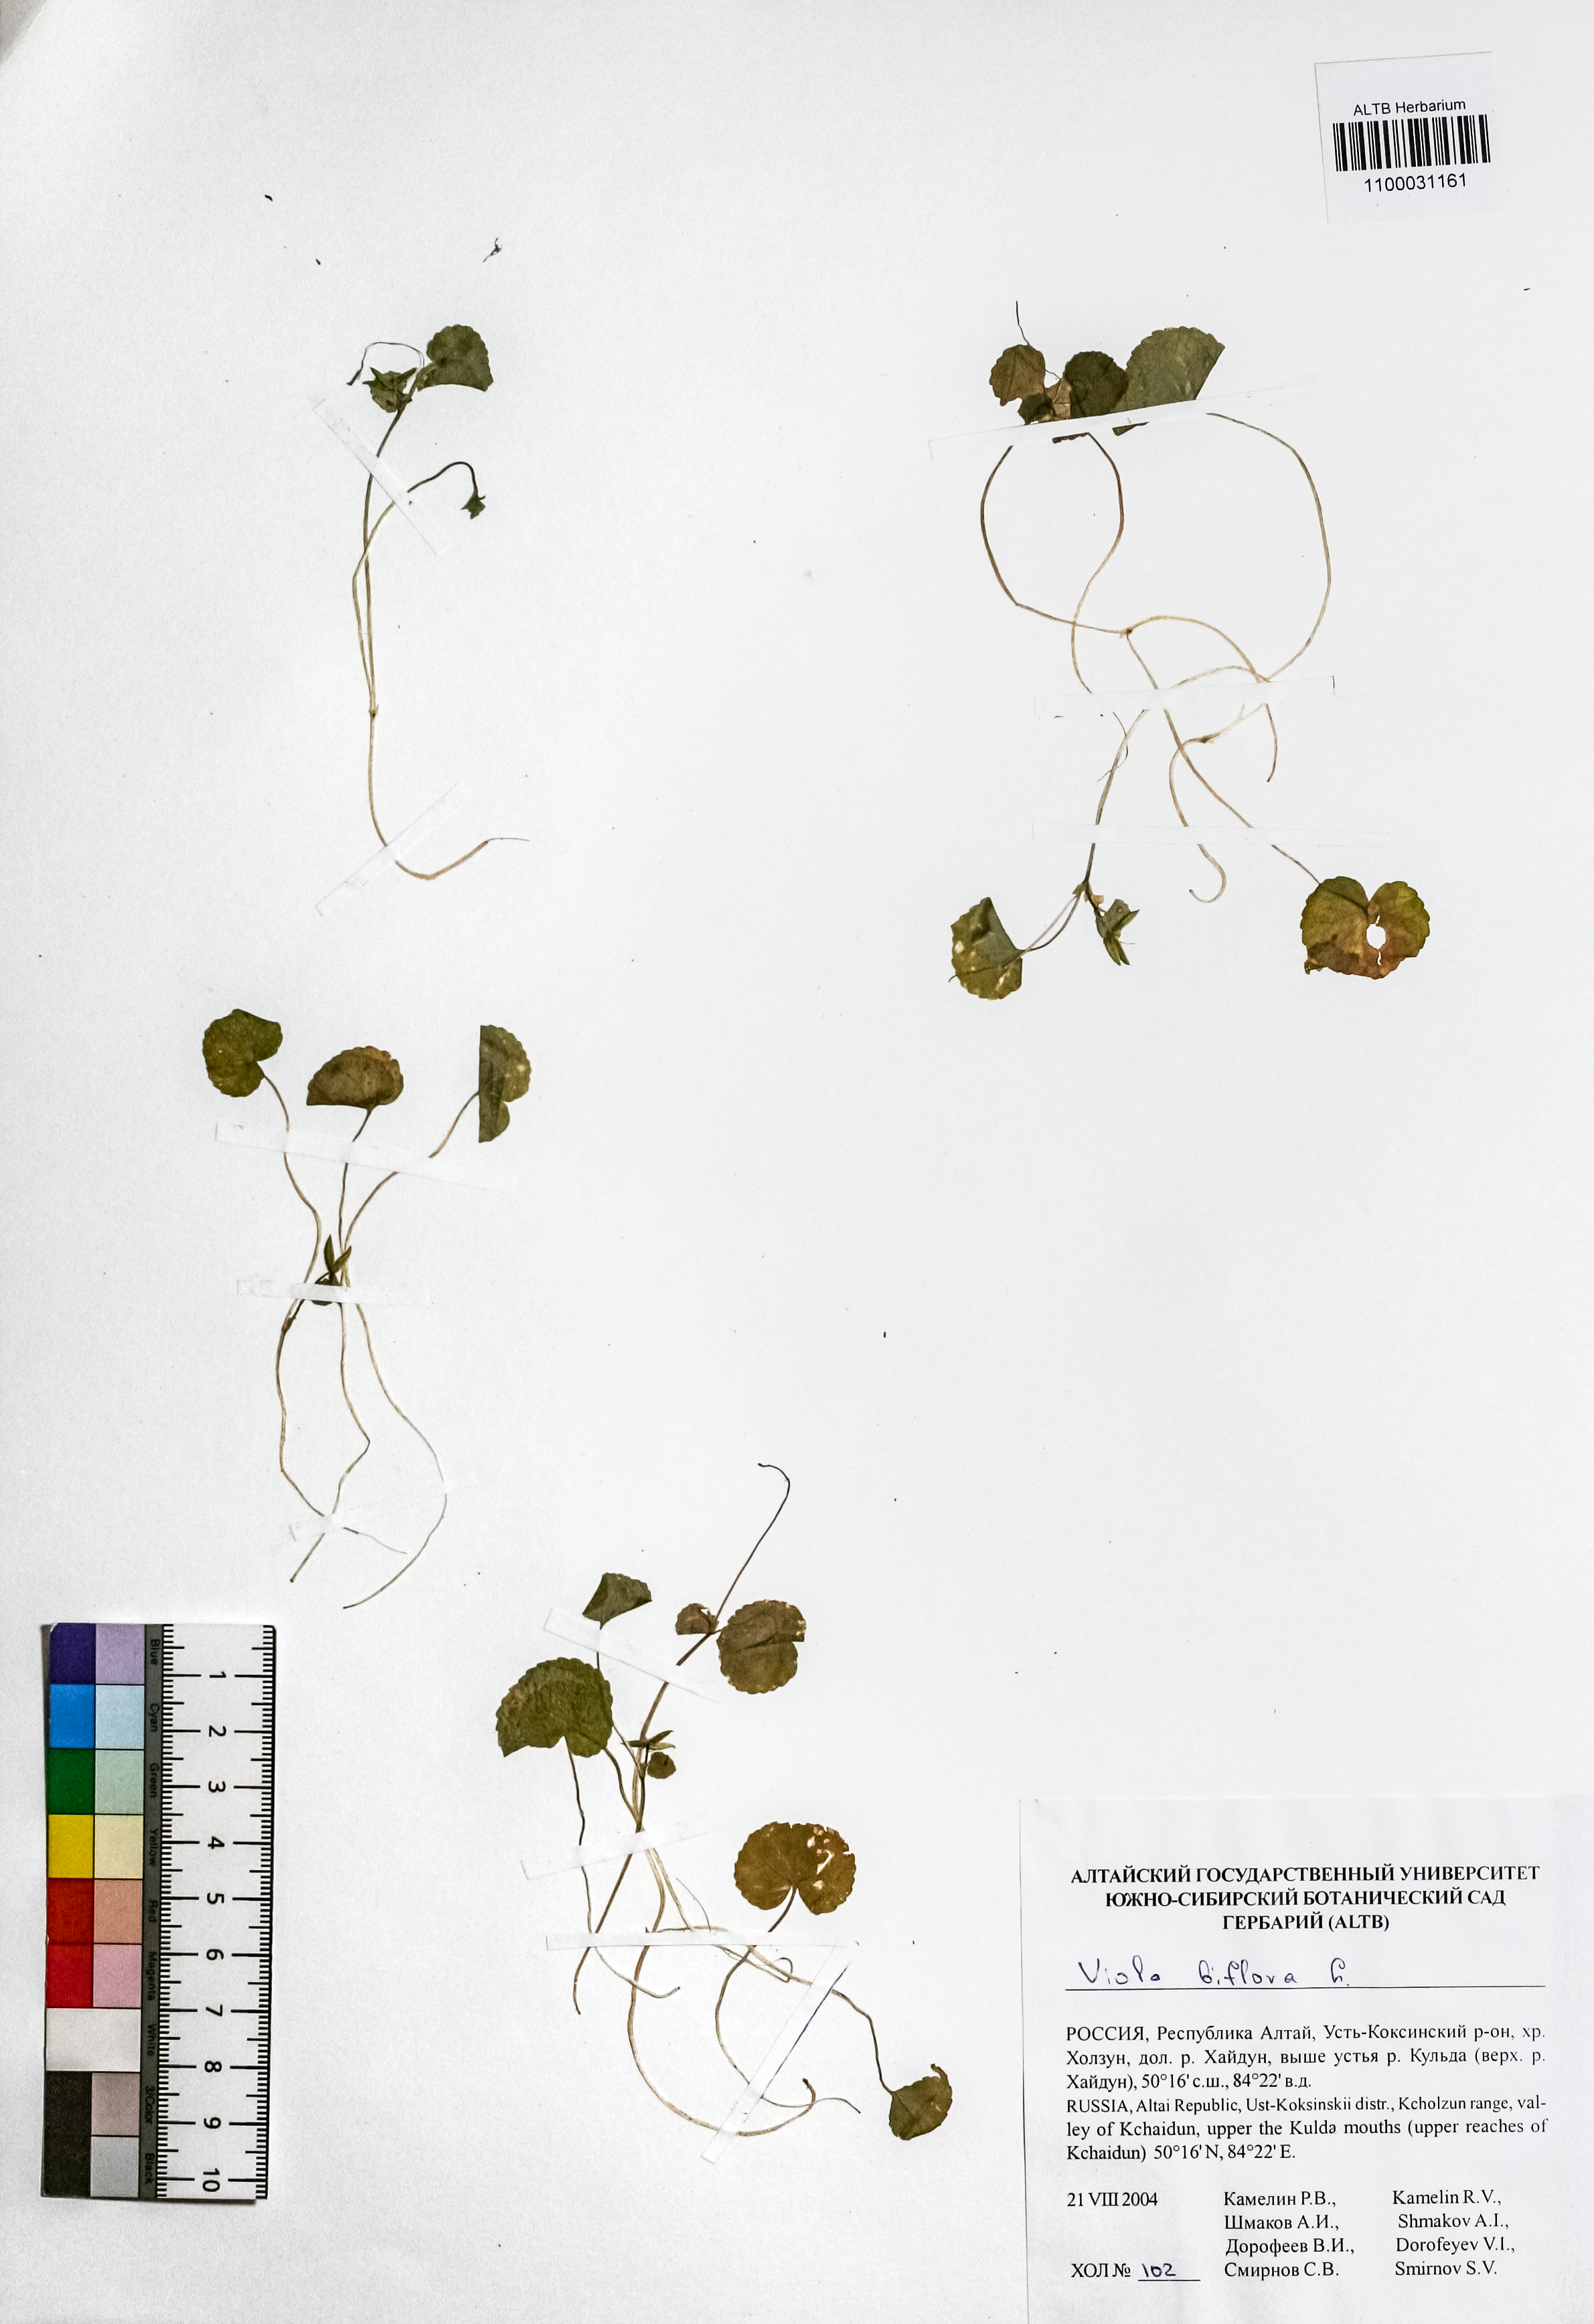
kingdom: Plantae
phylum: Tracheophyta
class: Magnoliopsida
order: Malpighiales
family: Violaceae
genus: Viola
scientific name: Viola biflora
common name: Alpine yellow violet
